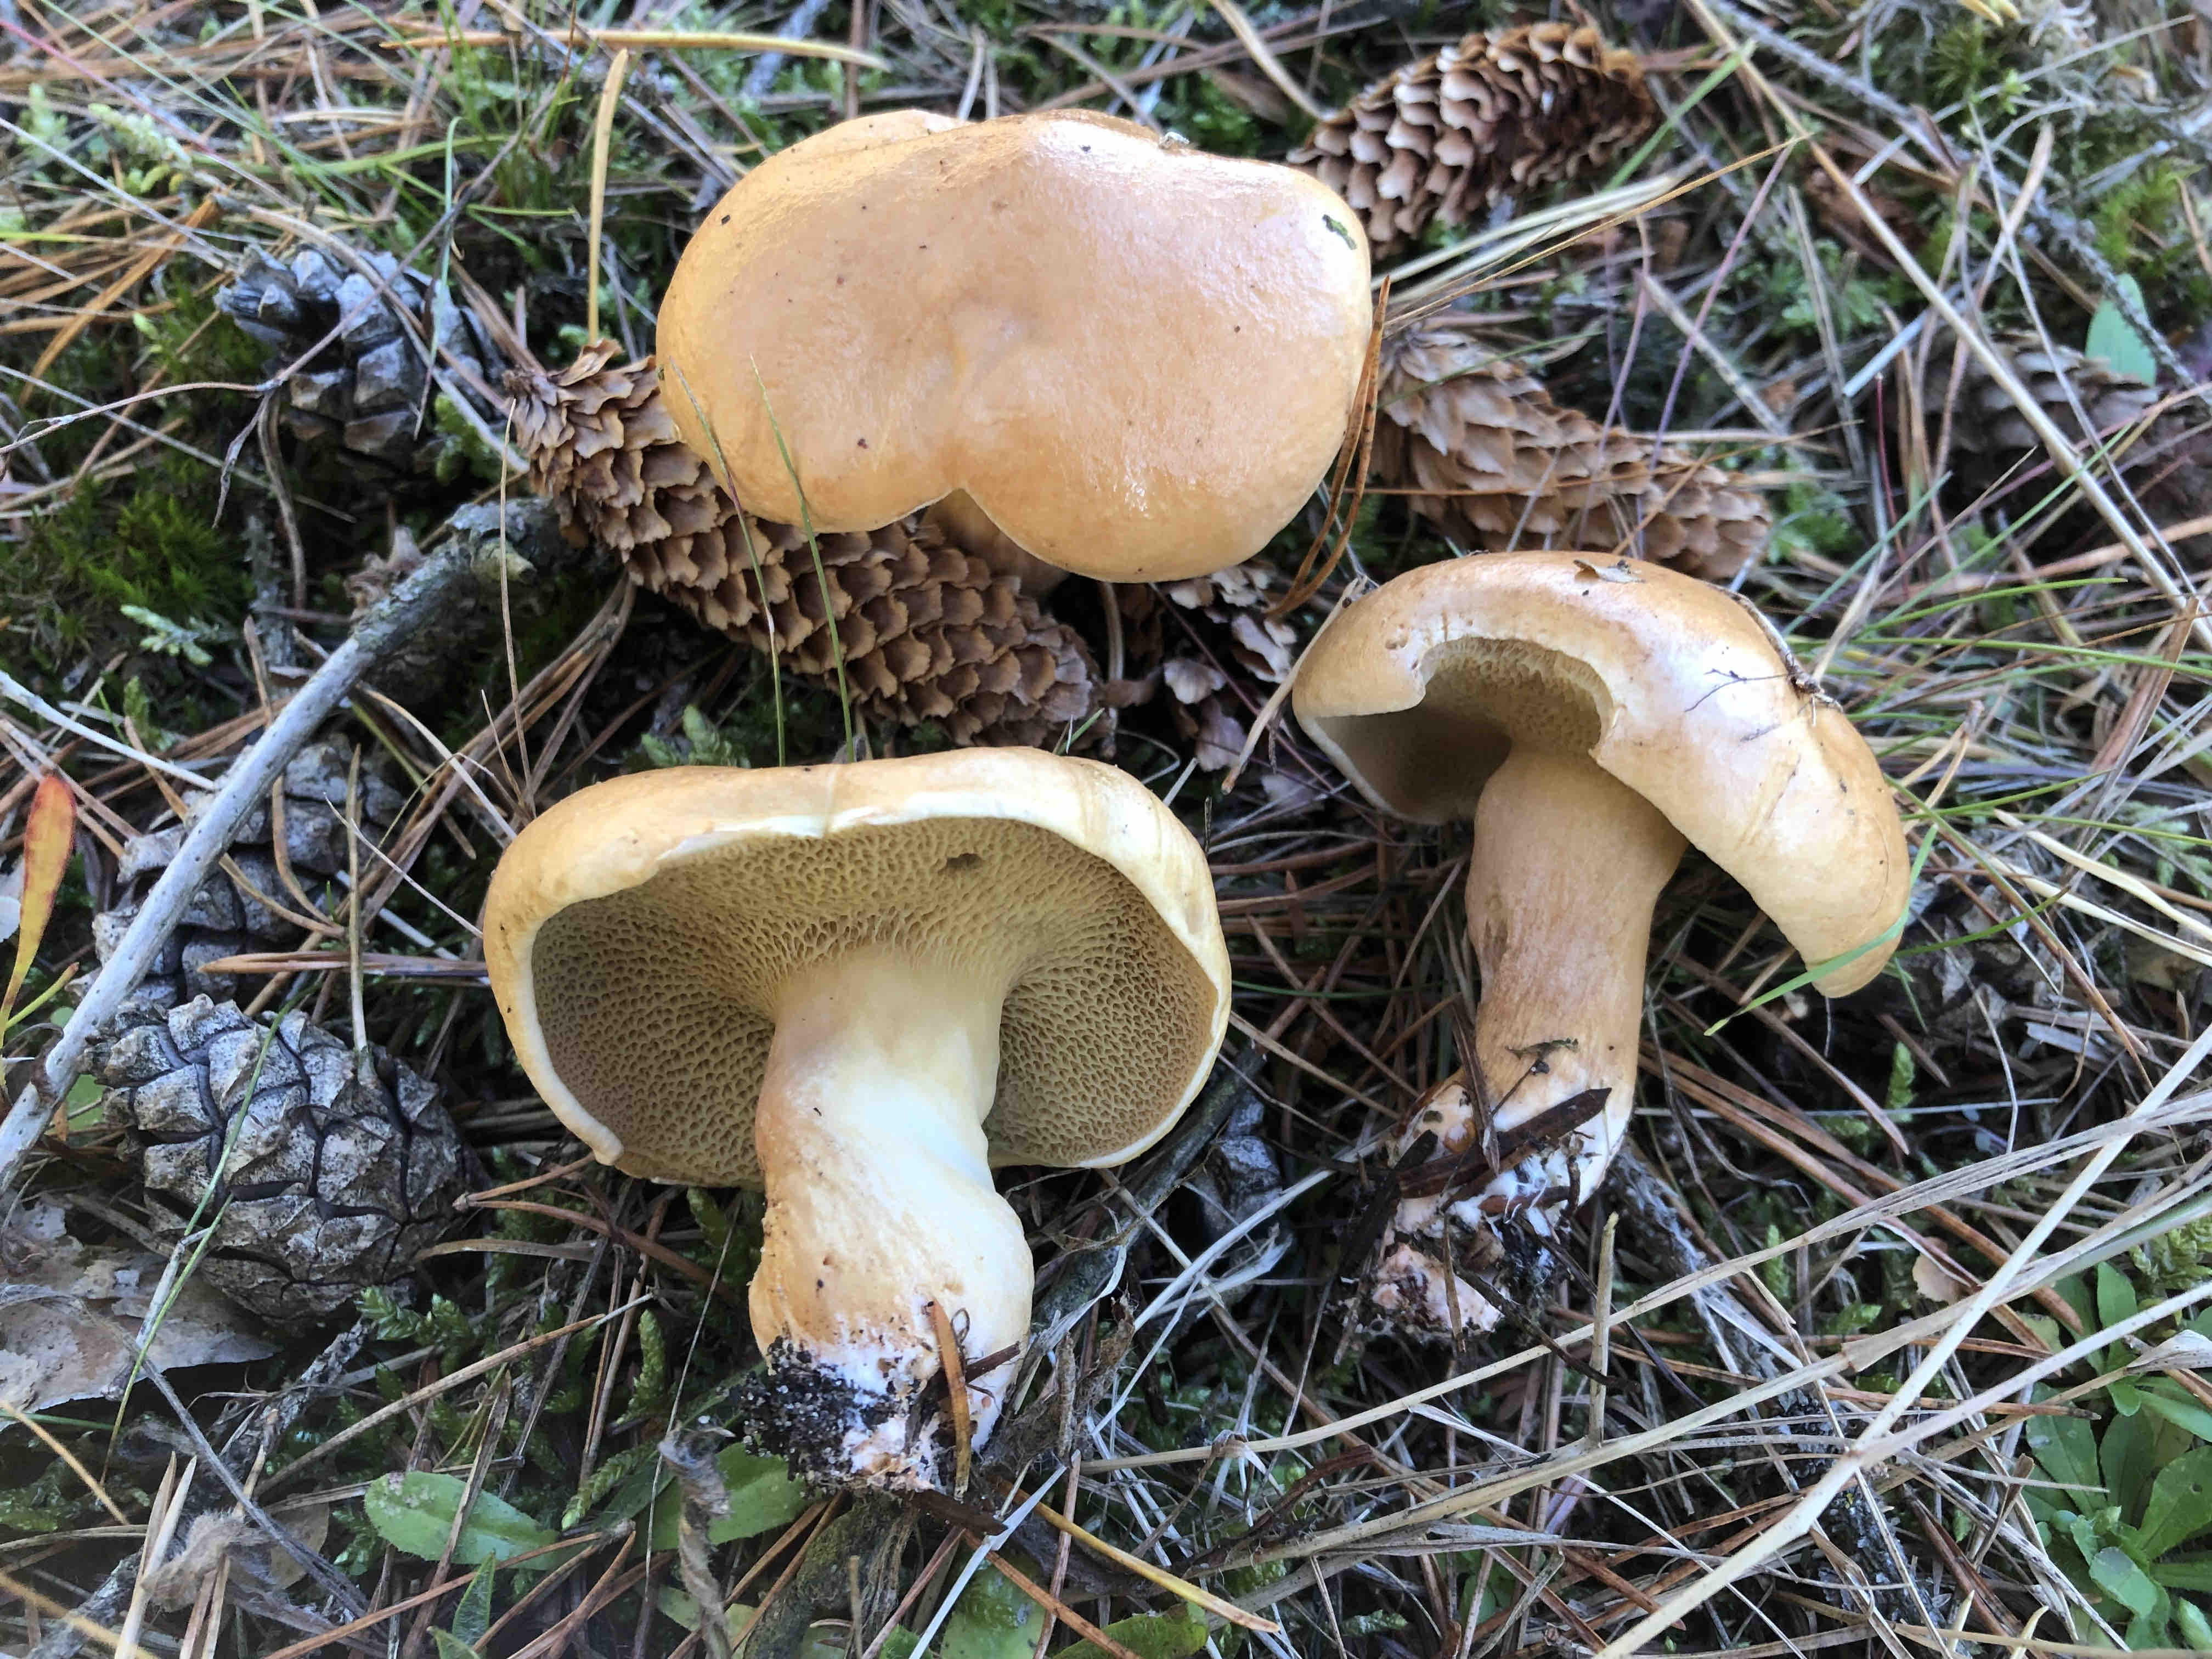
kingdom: Fungi
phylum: Basidiomycota
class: Agaricomycetes
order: Boletales
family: Suillaceae
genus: Suillus
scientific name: Suillus bovinus
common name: grovporet slimrørhat
